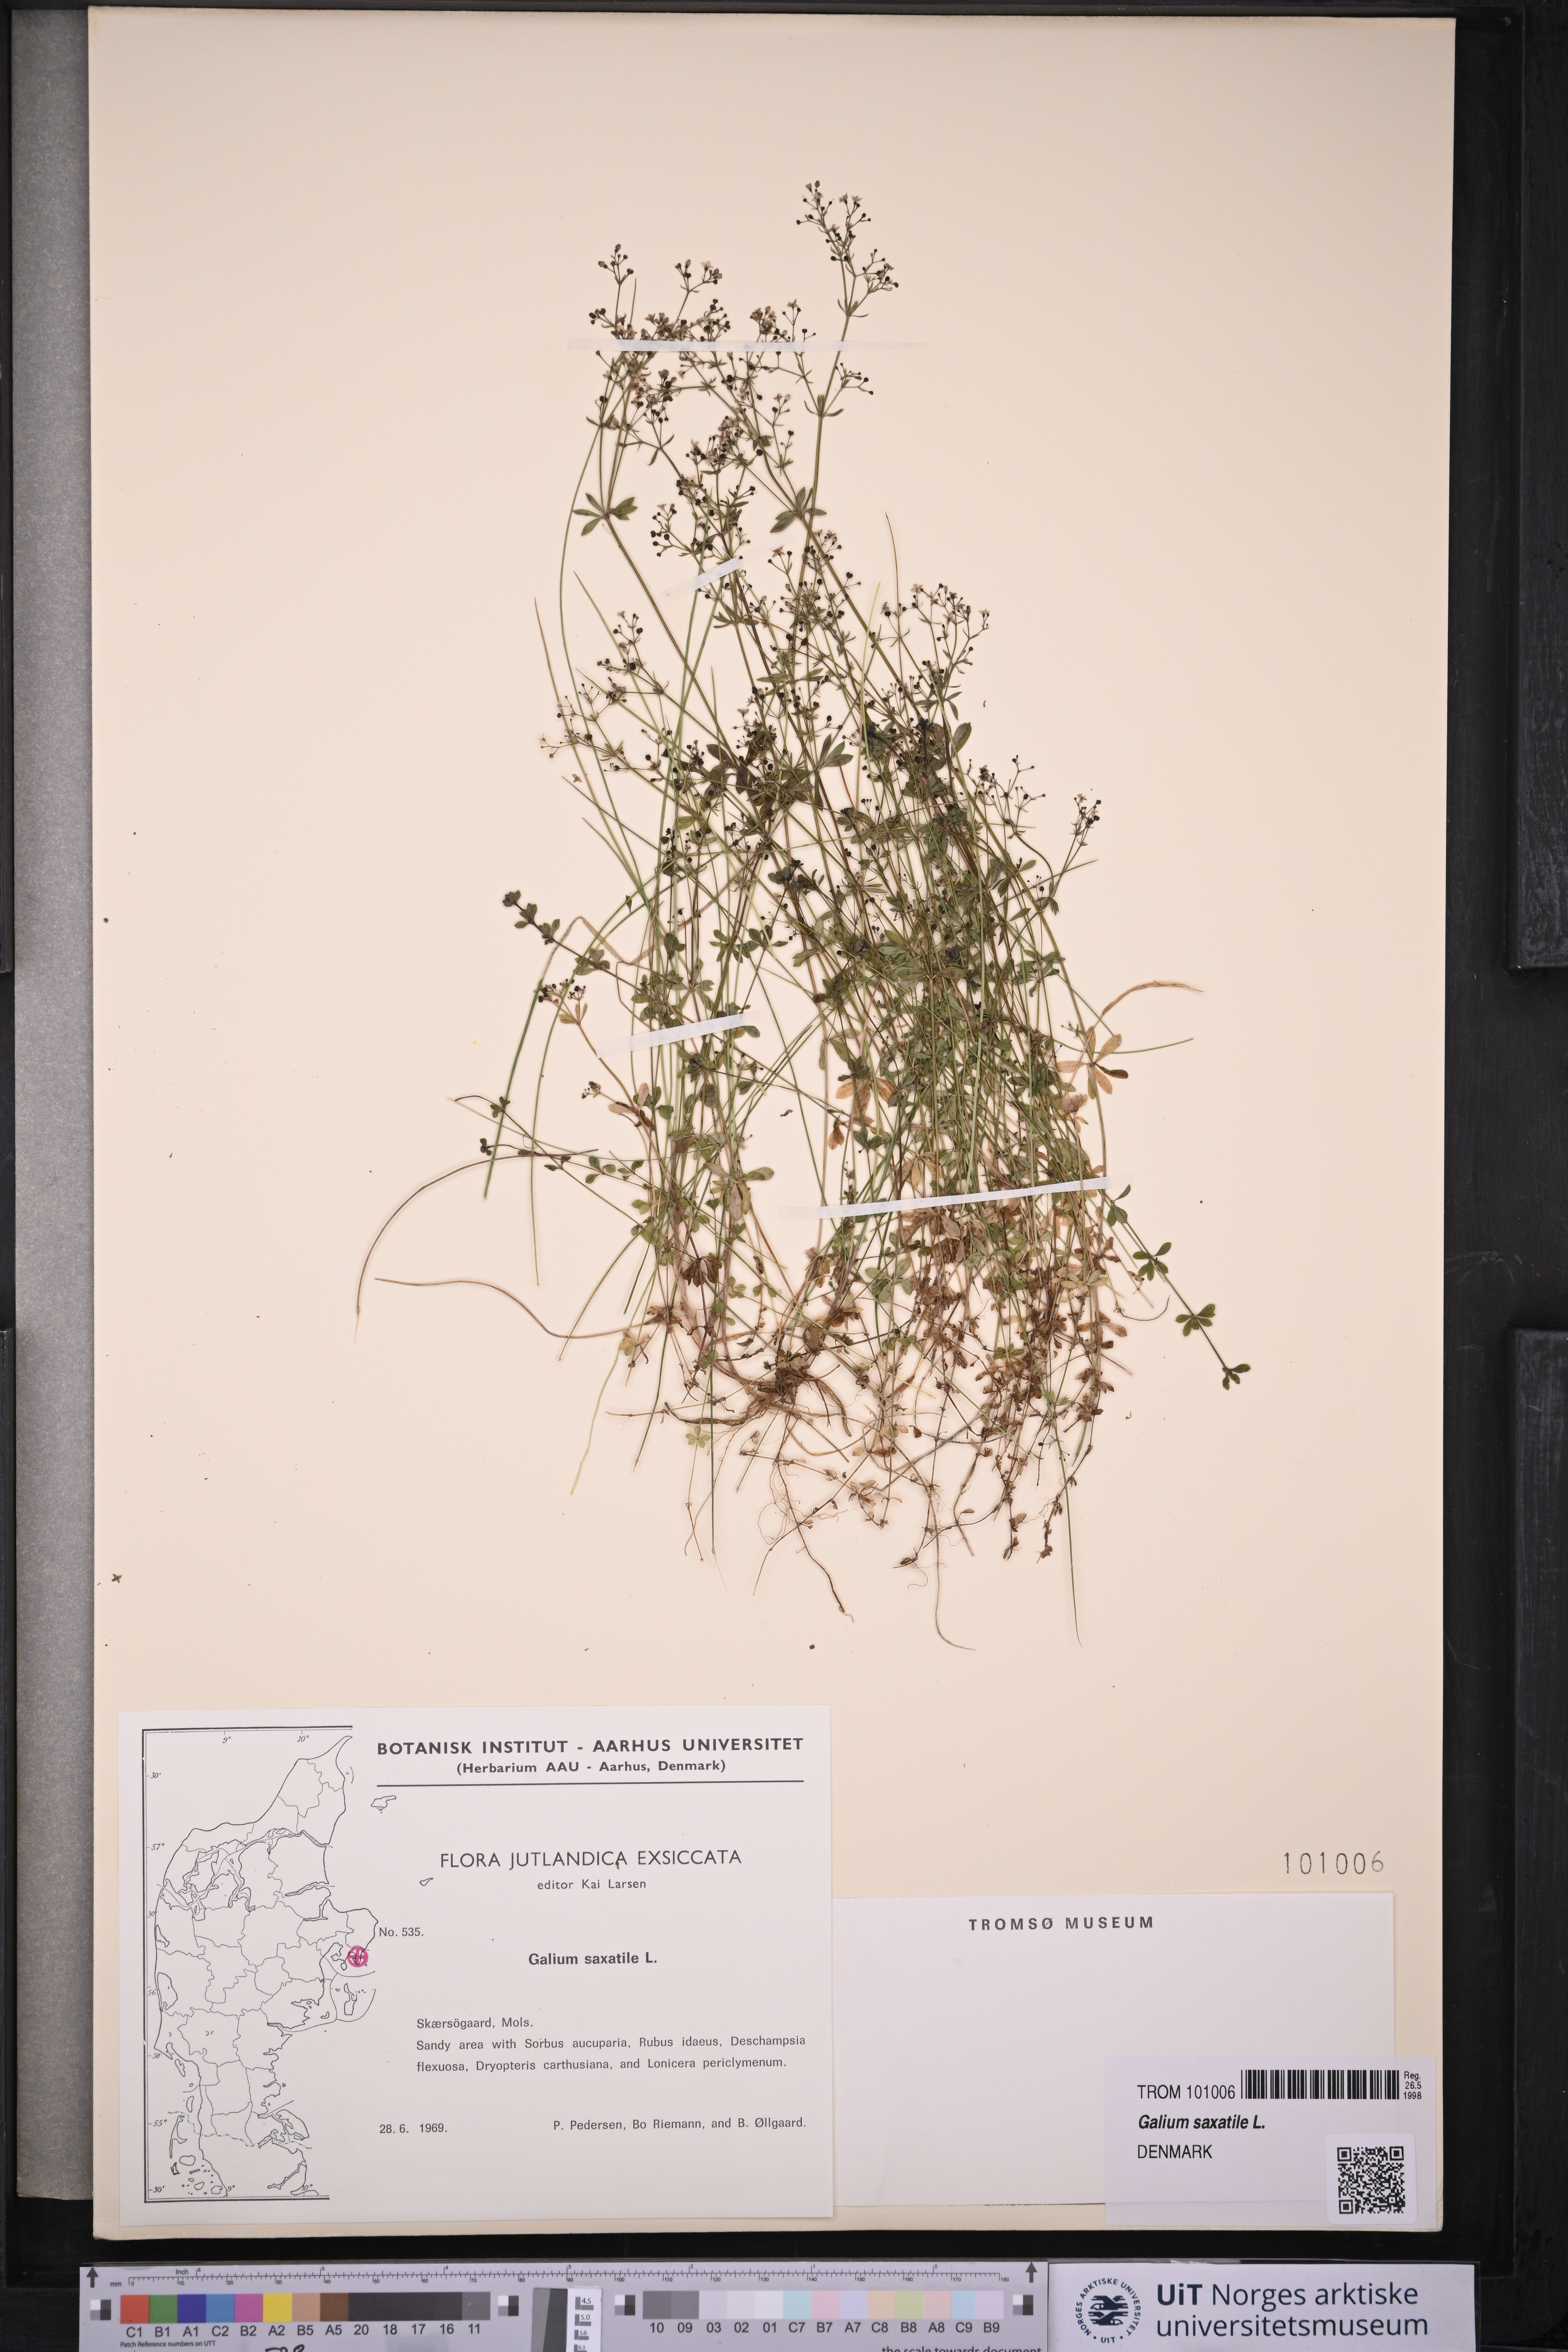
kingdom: Plantae
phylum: Tracheophyta
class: Magnoliopsida
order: Gentianales
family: Rubiaceae
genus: Galium
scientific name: Galium saxatile
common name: Heath bedstraw
